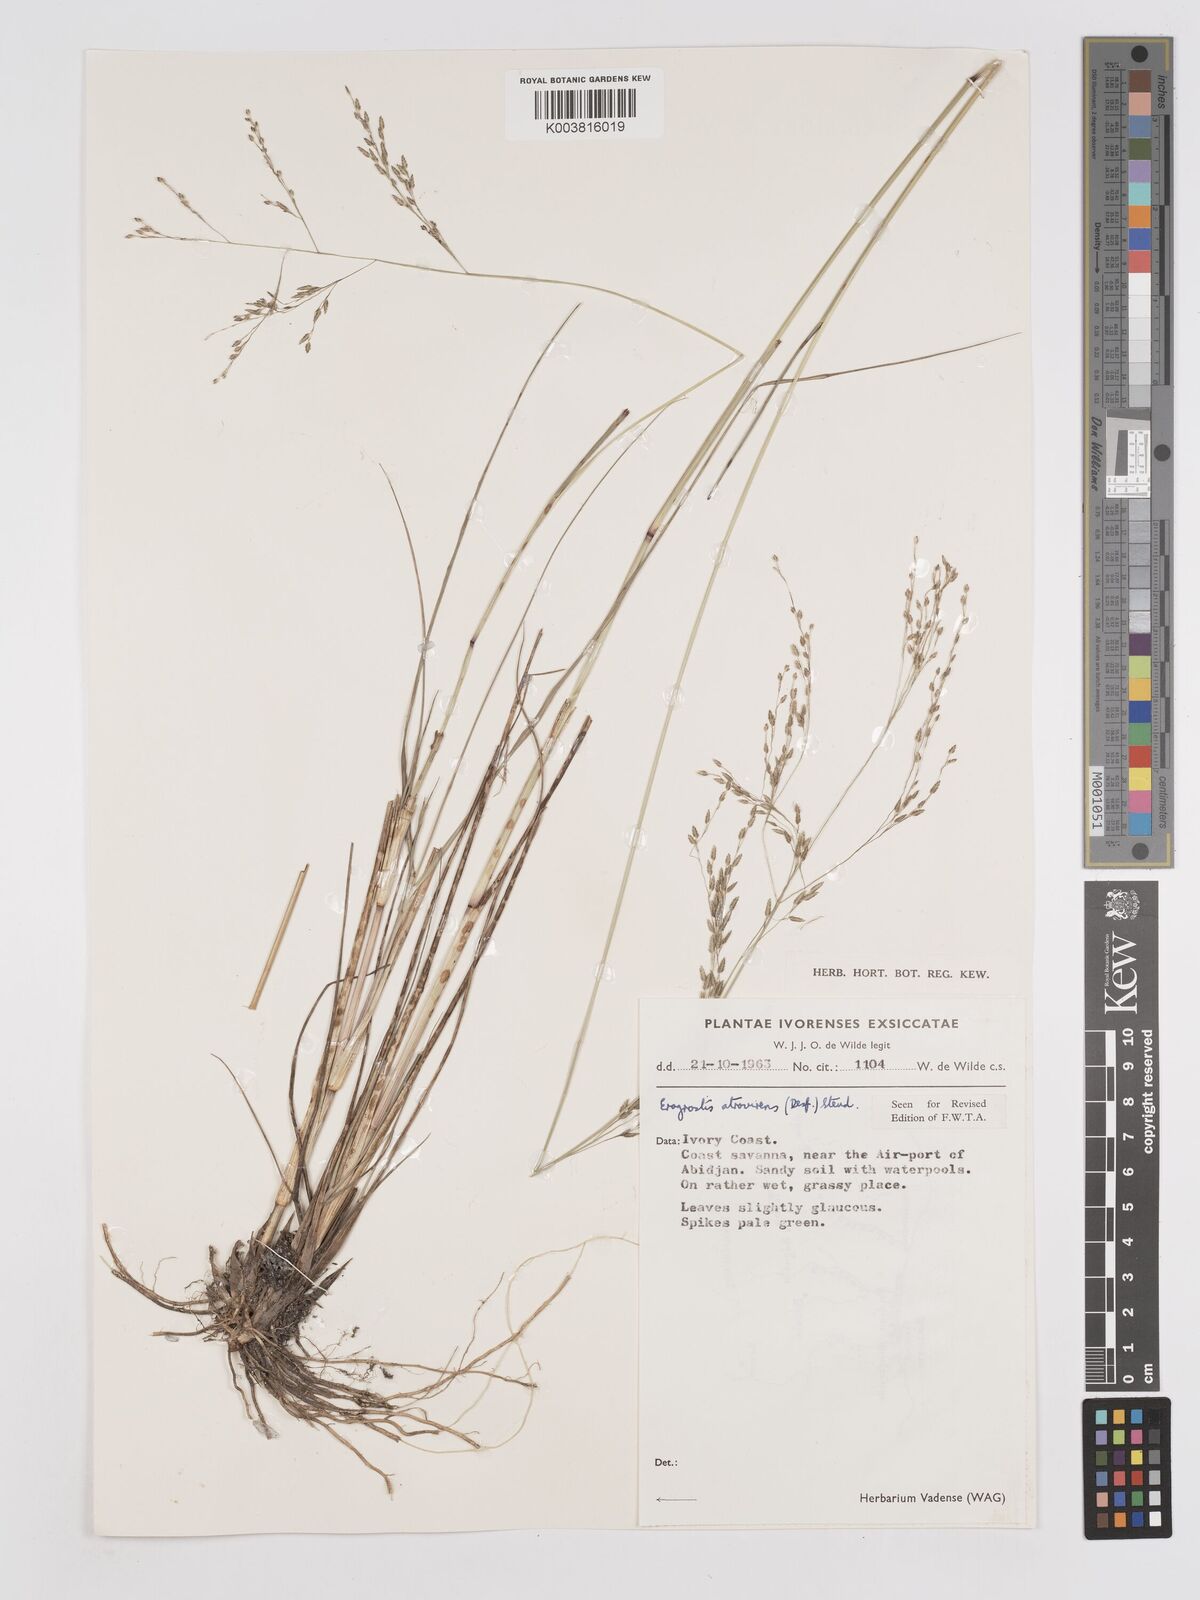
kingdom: Plantae
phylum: Tracheophyta
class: Liliopsida
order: Poales
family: Poaceae
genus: Eragrostis
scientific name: Eragrostis atrovirens
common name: Thalia lovegrass
